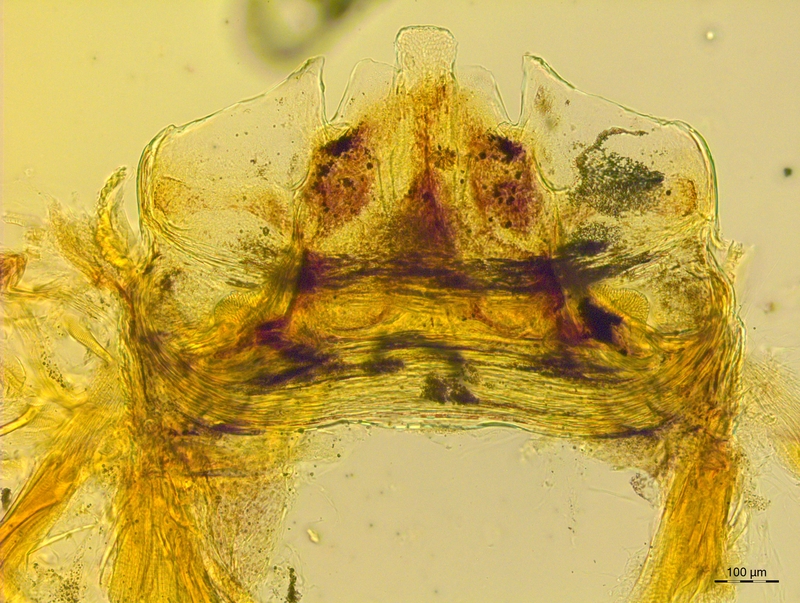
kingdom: Animalia
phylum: Arthropoda
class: Diplopoda
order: Chordeumatida
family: Craspedosomatidae
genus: Craspedosoma
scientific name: Craspedosoma taurinorum
